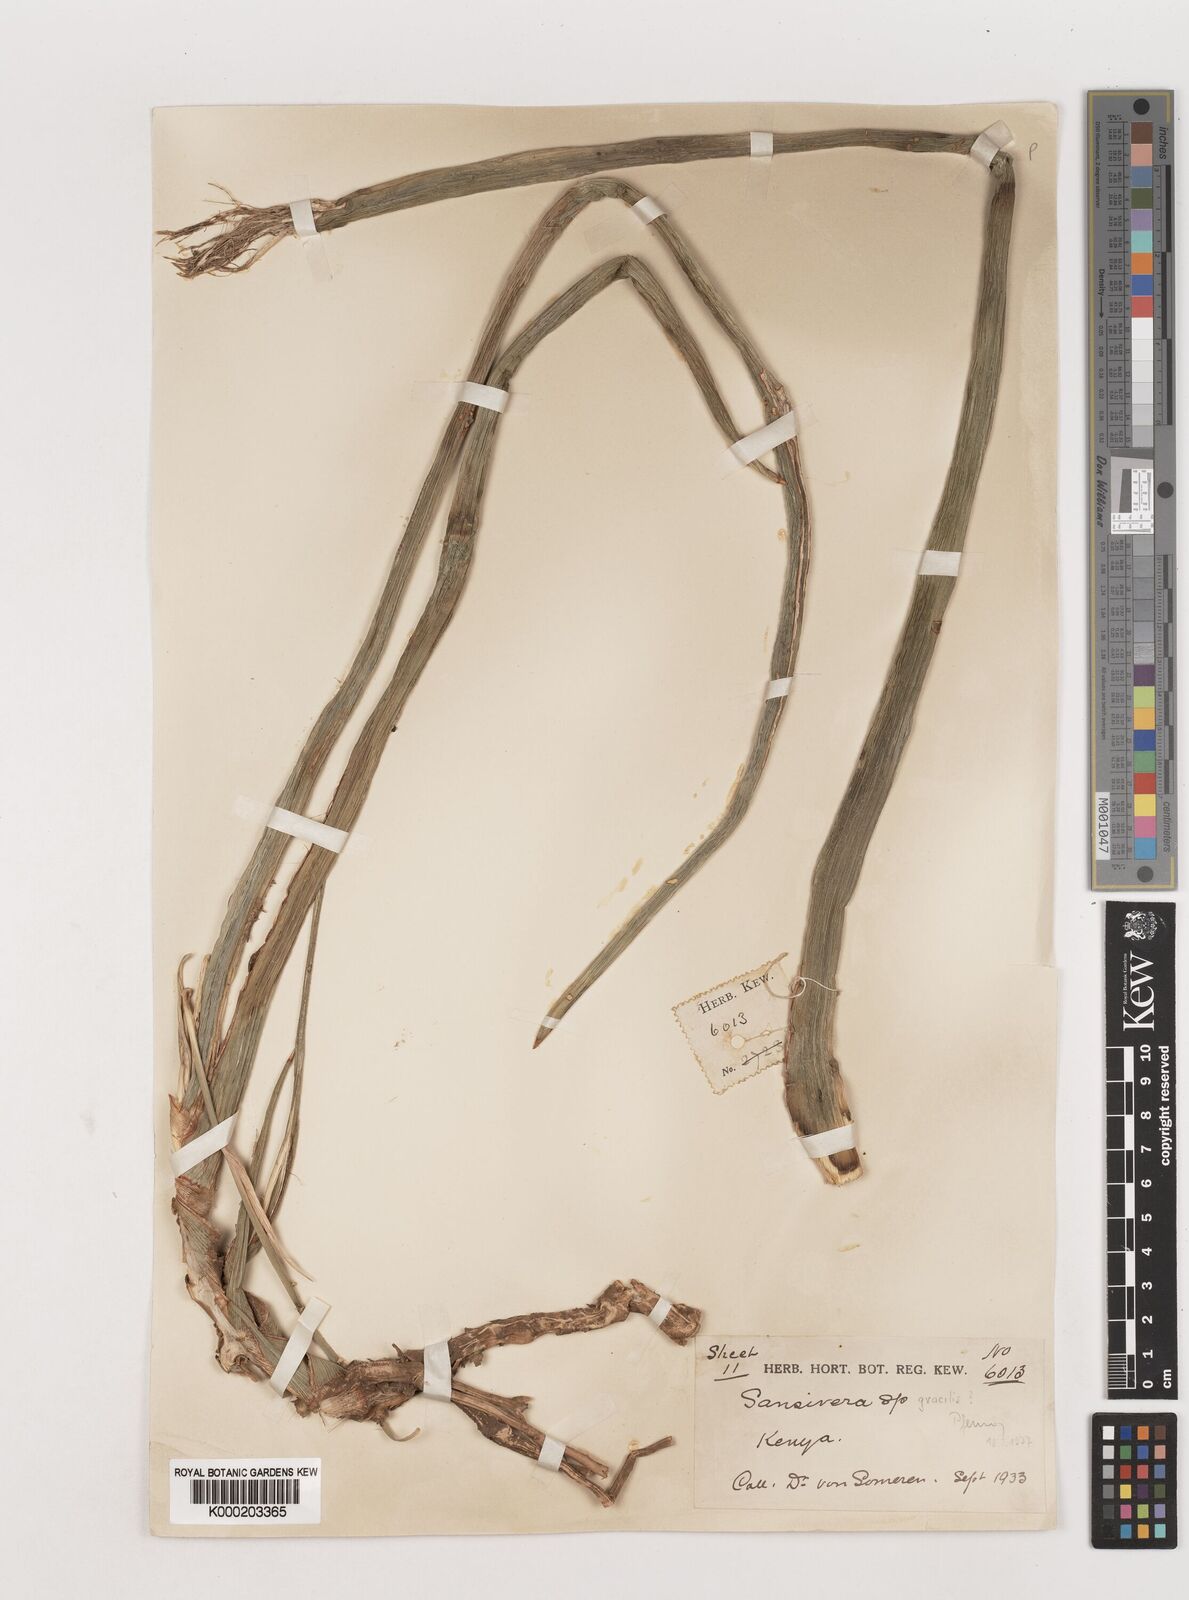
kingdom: Plantae
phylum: Tracheophyta
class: Liliopsida
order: Asparagales
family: Asparagaceae
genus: Dracaena
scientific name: Dracaena suffruticosa
